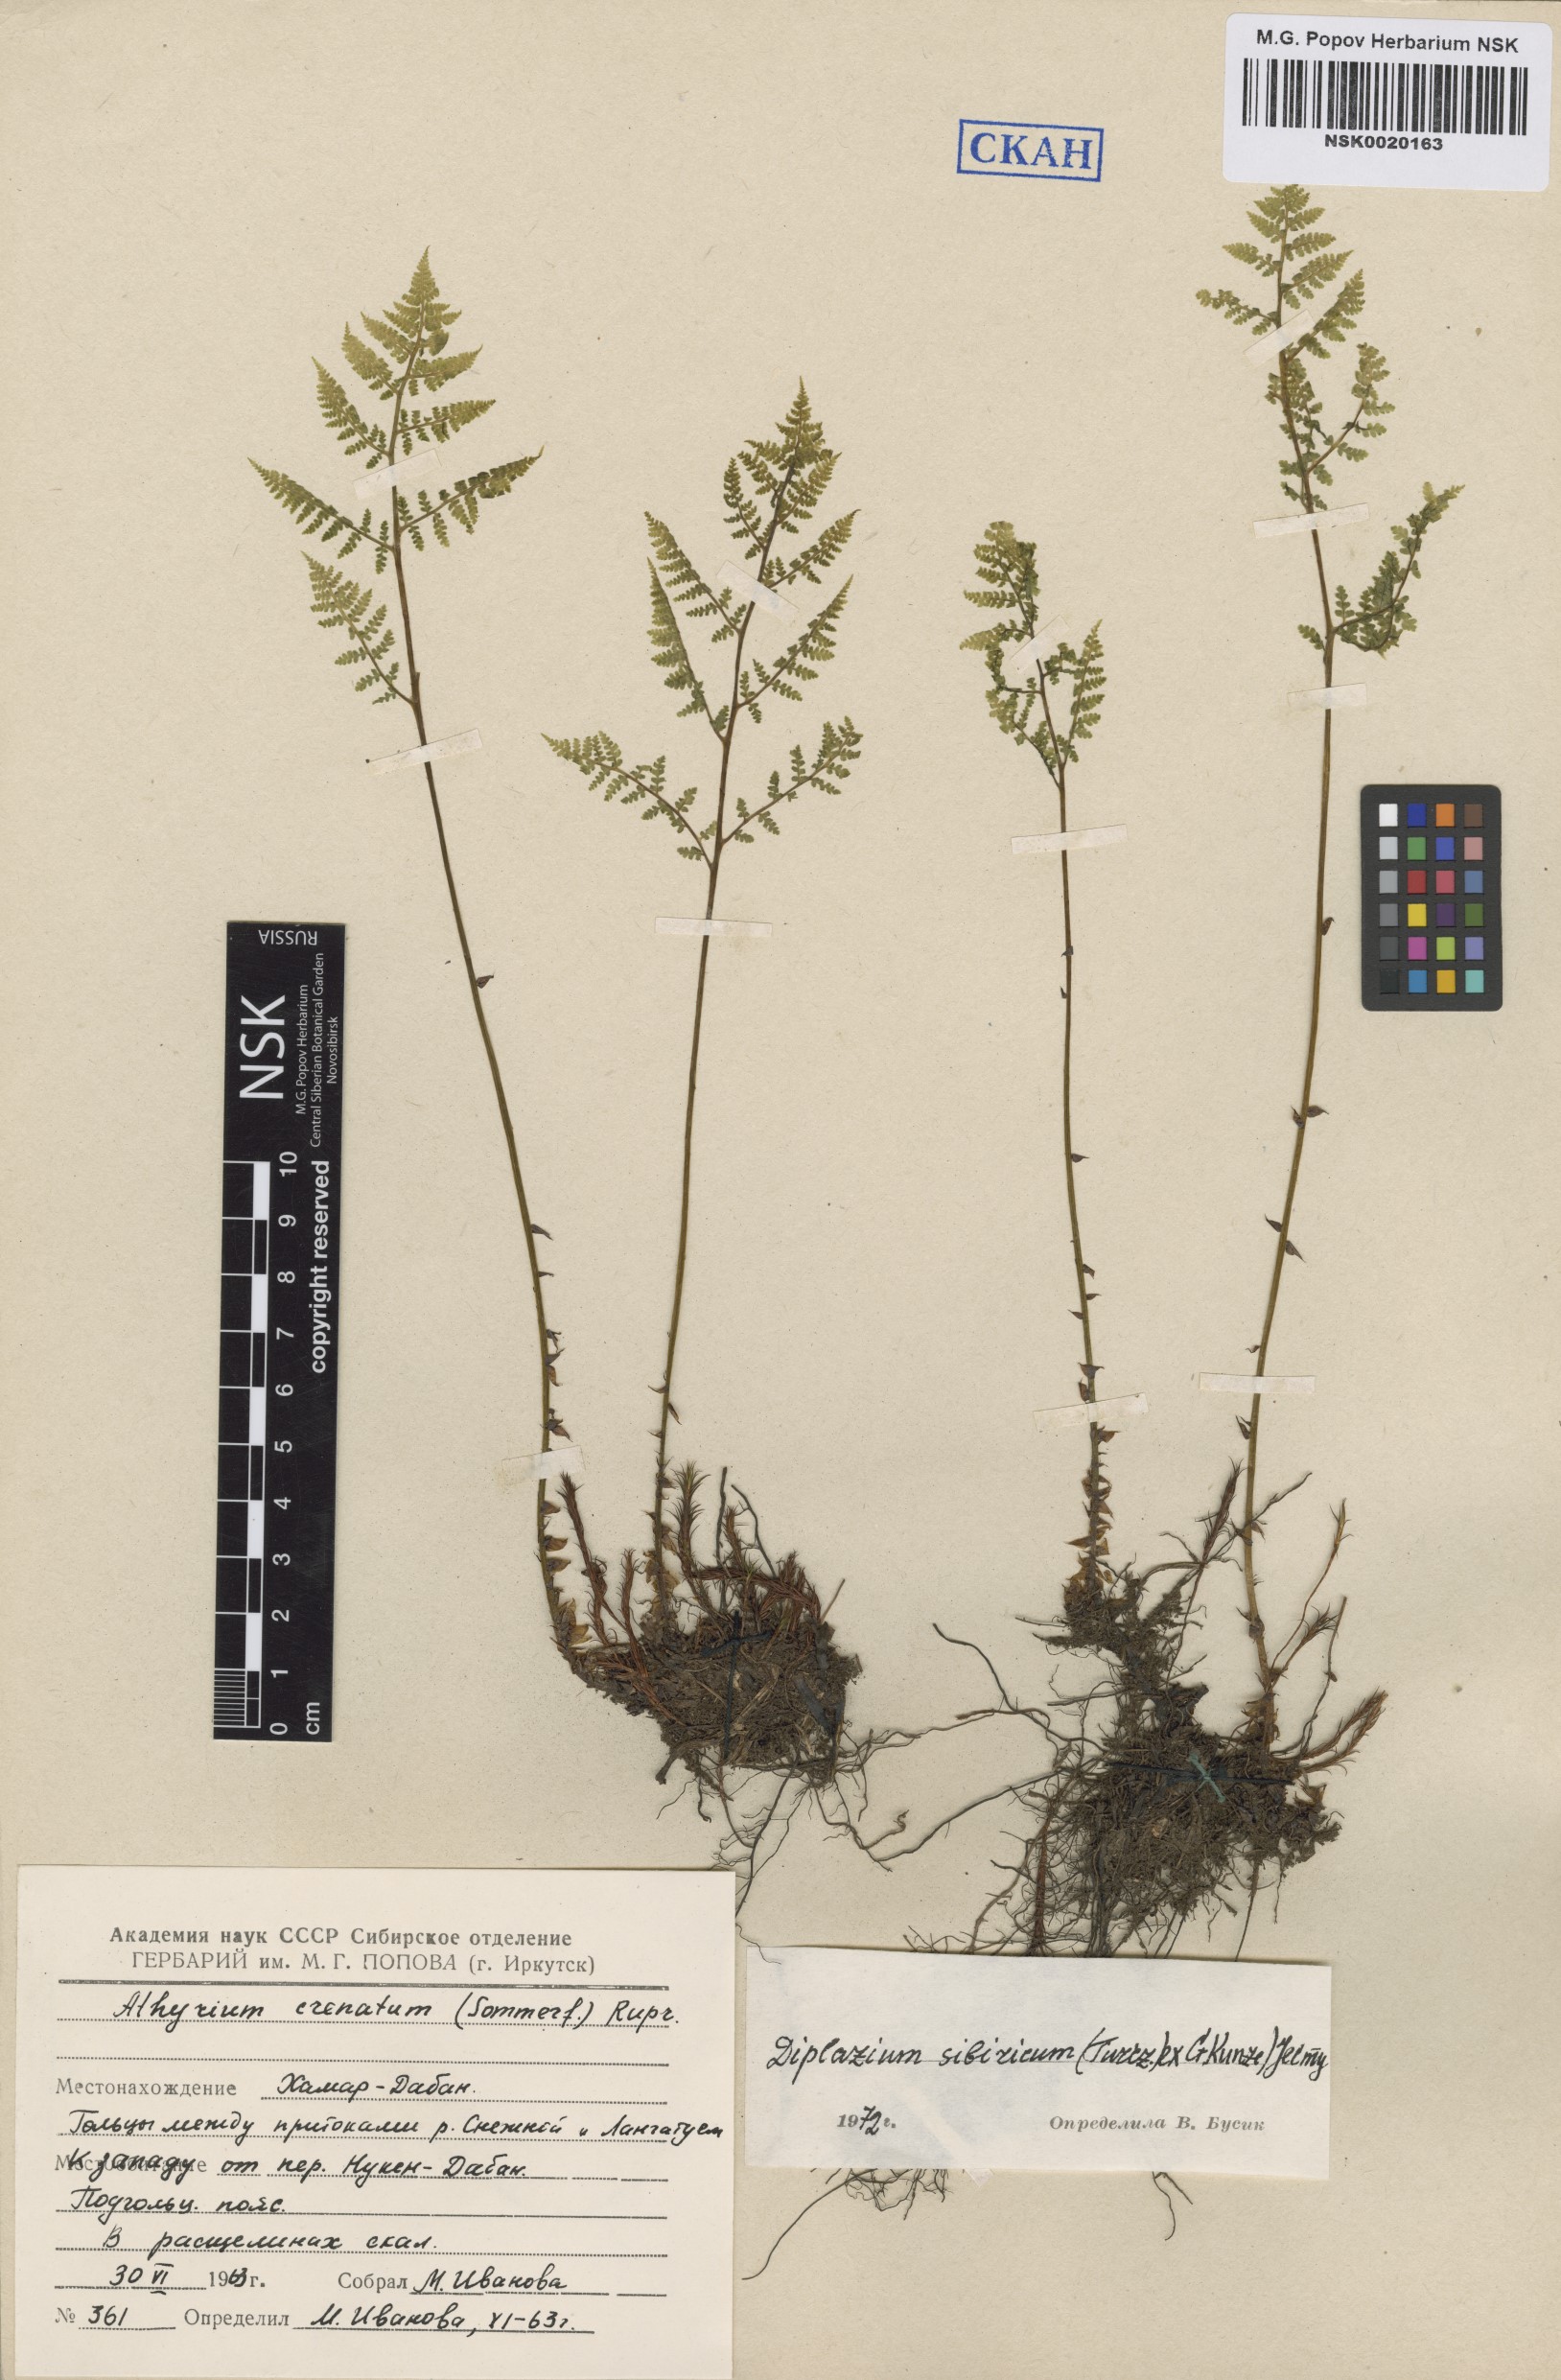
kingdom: Plantae
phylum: Tracheophyta
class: Polypodiopsida
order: Polypodiales
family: Athyriaceae
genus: Diplazium
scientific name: Diplazium sibiricum
